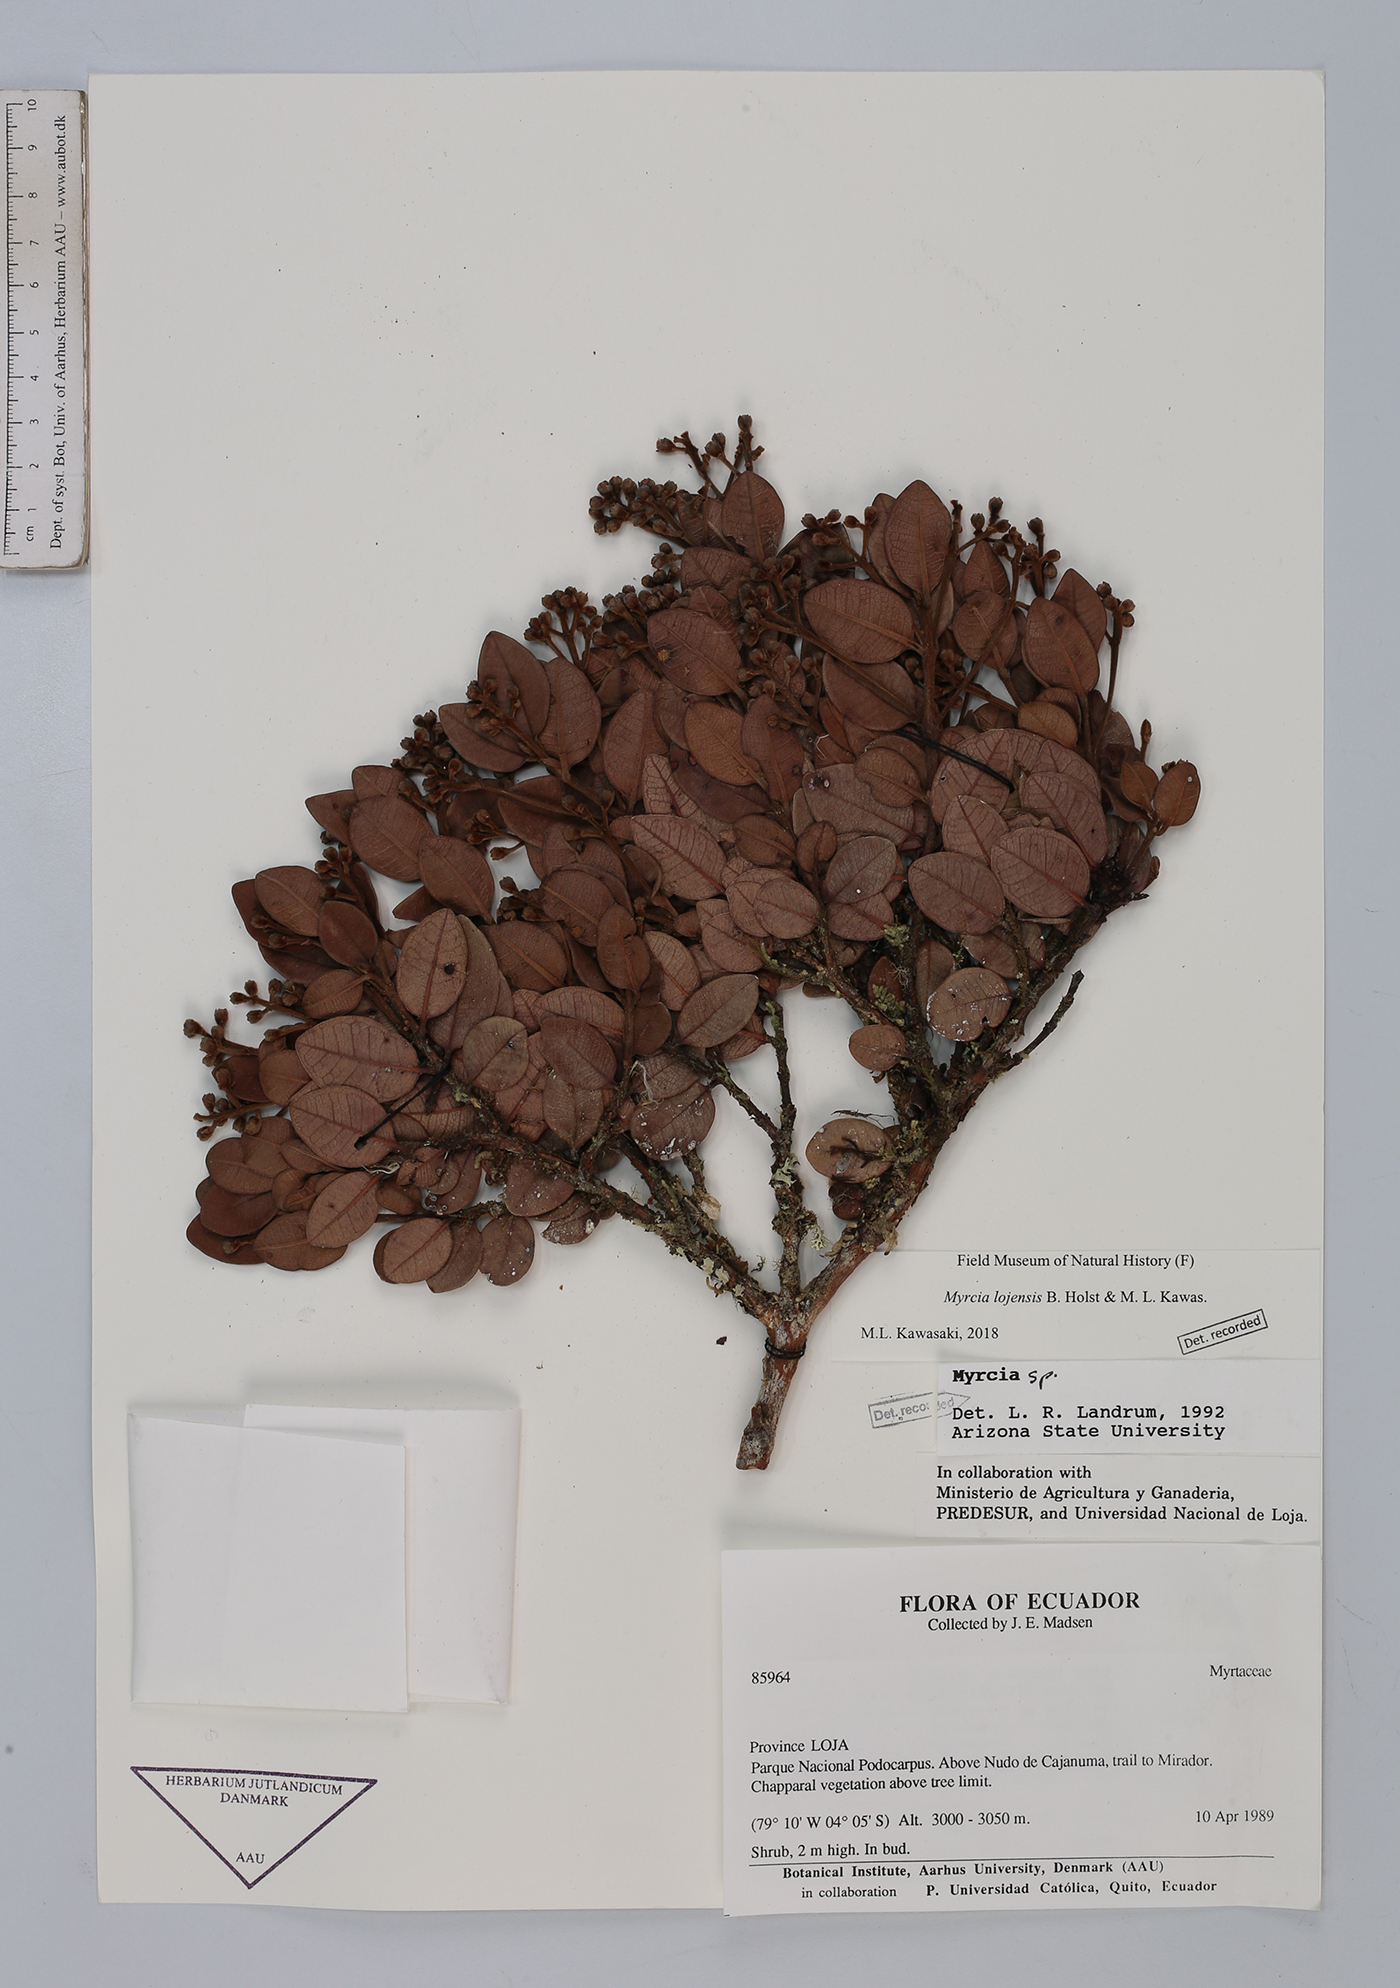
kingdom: Plantae
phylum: Tracheophyta
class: Magnoliopsida
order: Myrtales
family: Myrtaceae
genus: Myrcia
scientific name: Myrcia lojensis
